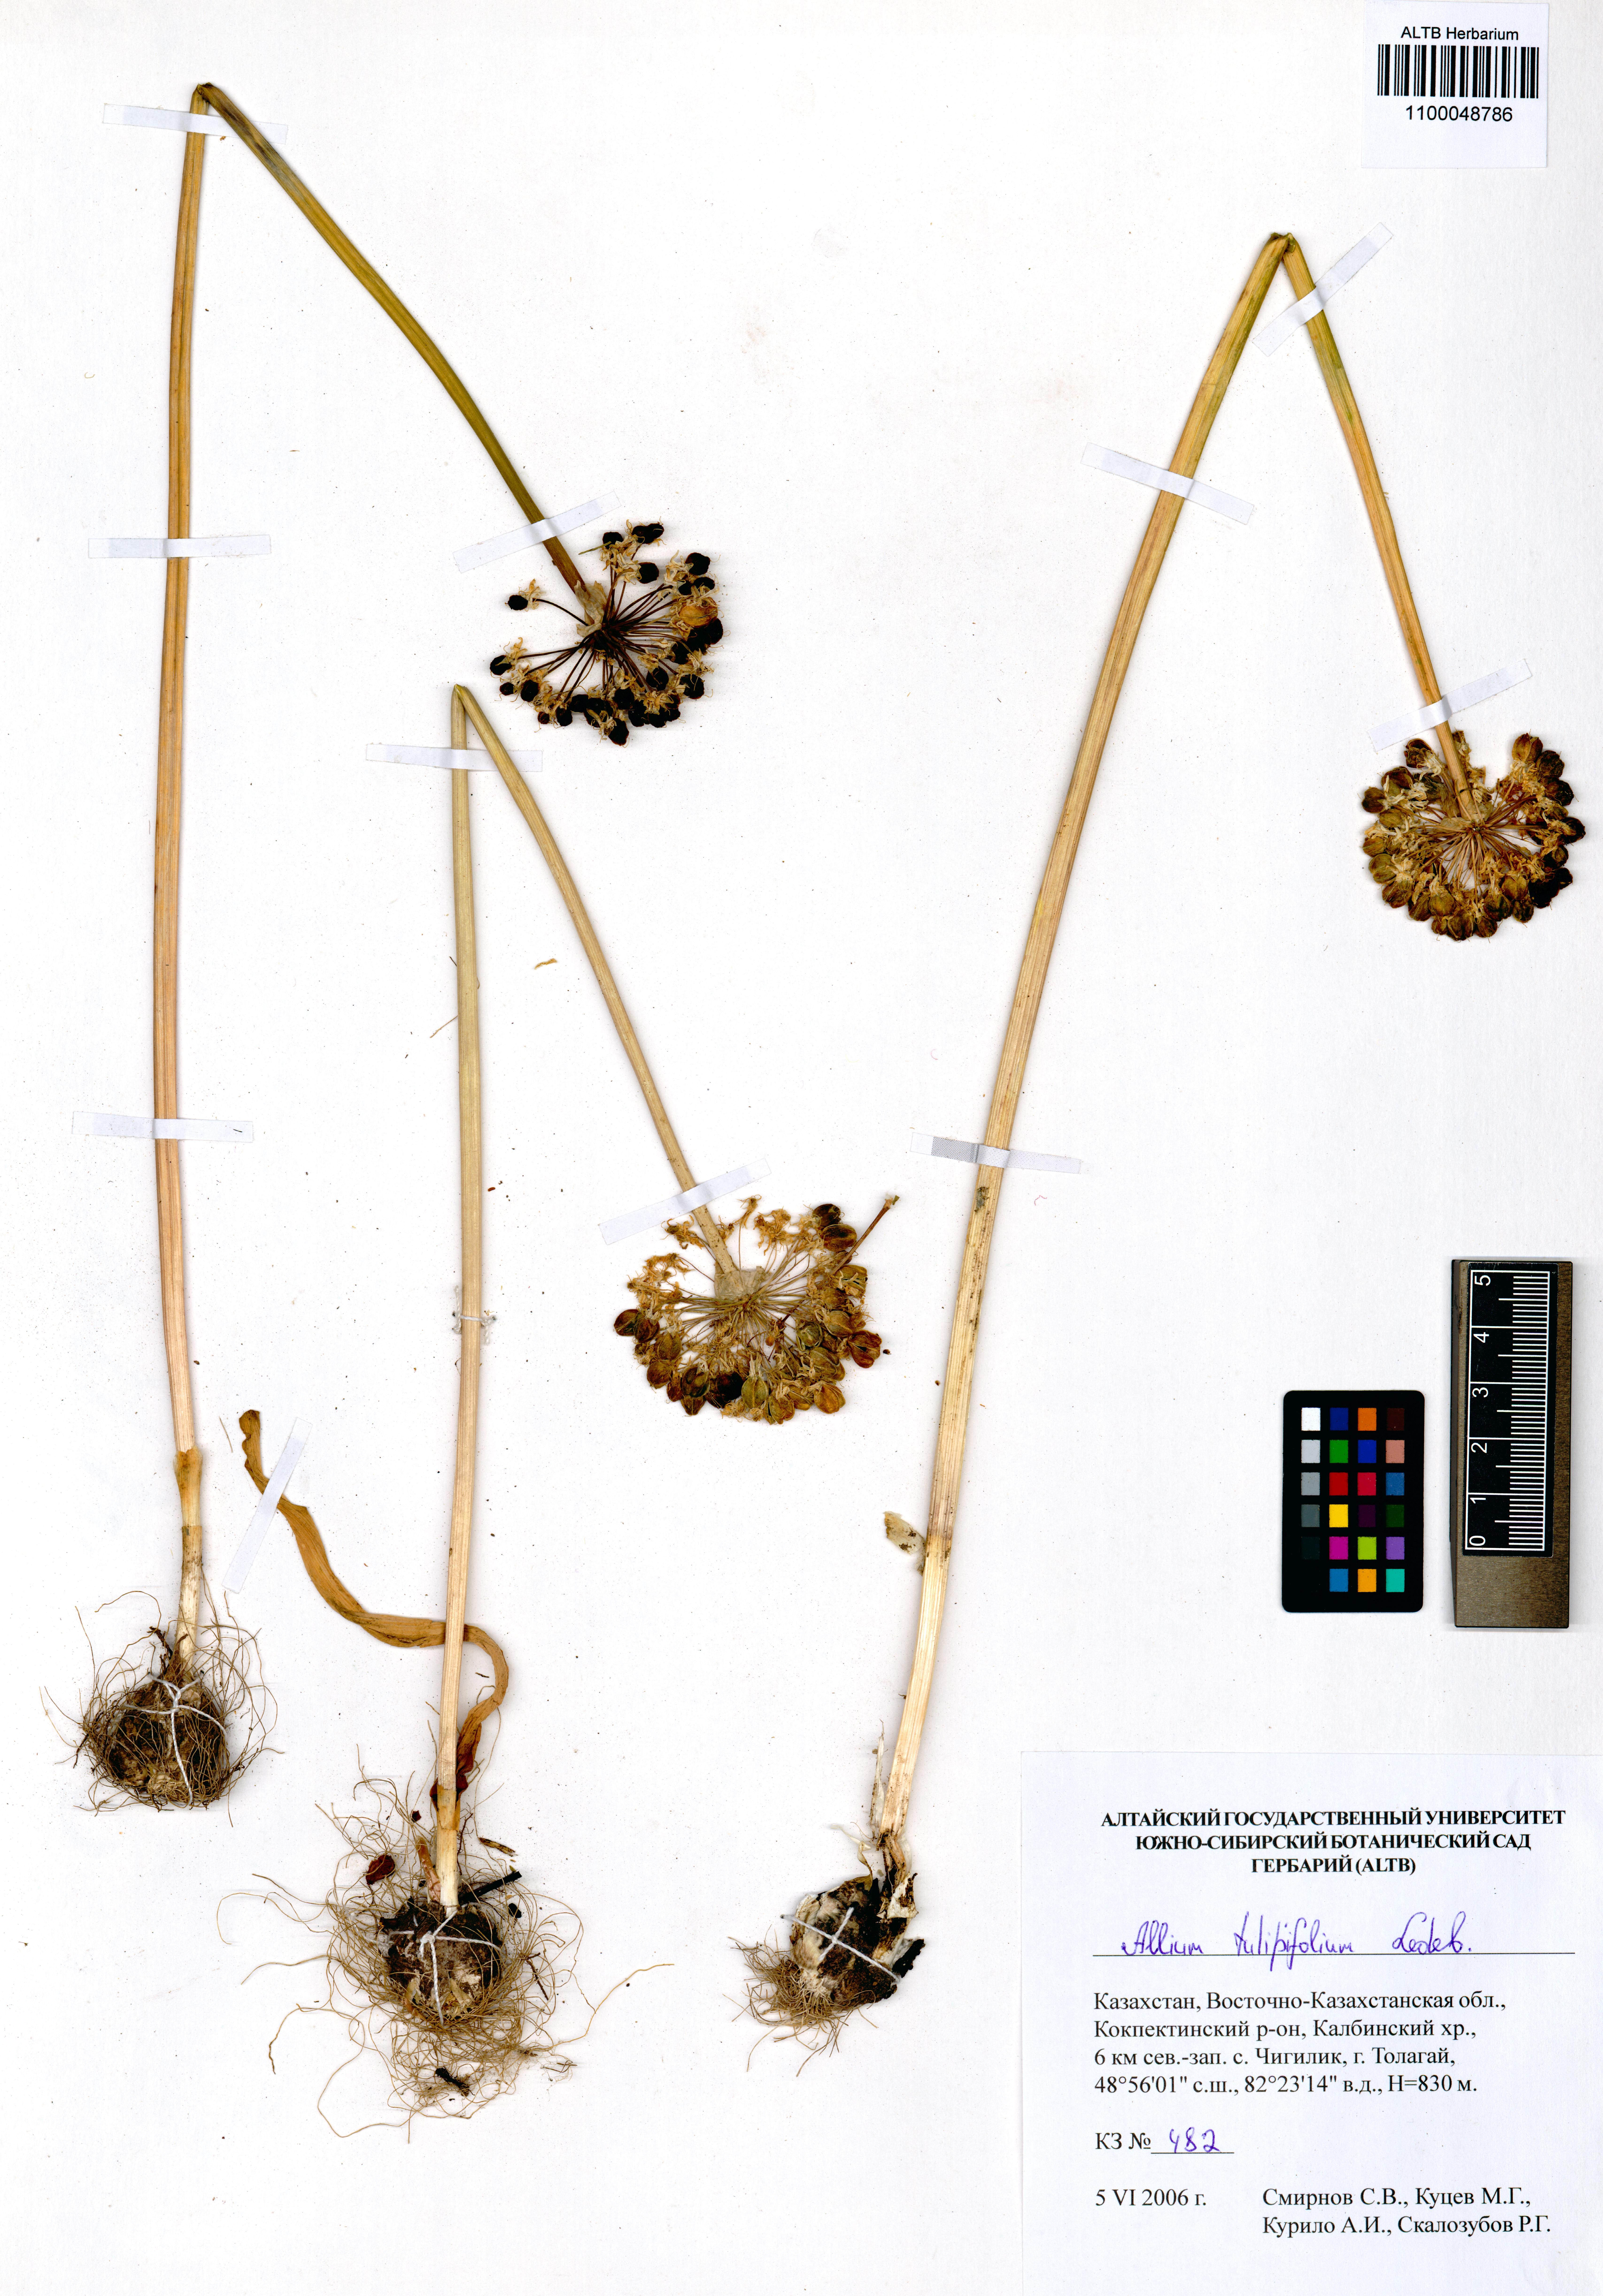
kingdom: Plantae
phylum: Tracheophyta
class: Liliopsida
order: Asparagales
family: Amaryllidaceae
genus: Allium
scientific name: Allium tulipifolium
